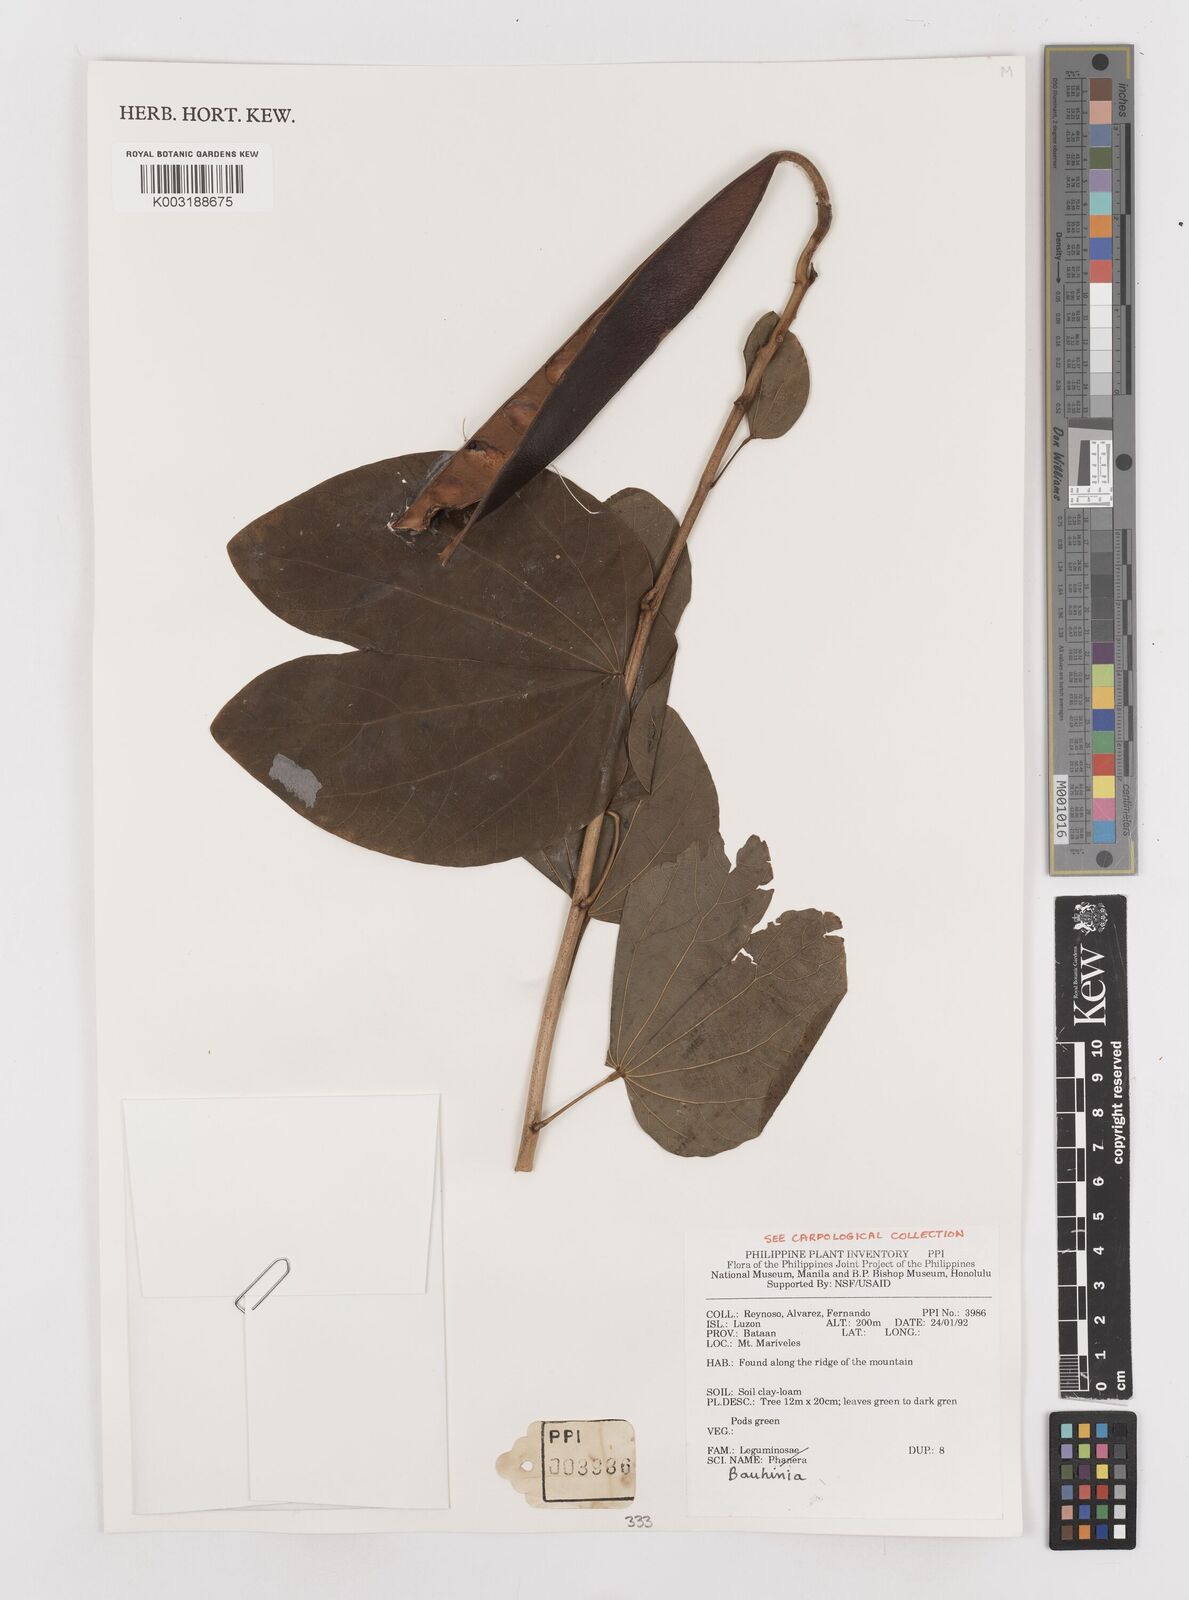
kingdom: Plantae
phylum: Tracheophyta
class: Magnoliopsida
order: Fabales
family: Fabaceae
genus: Bauhinia
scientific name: Bauhinia
